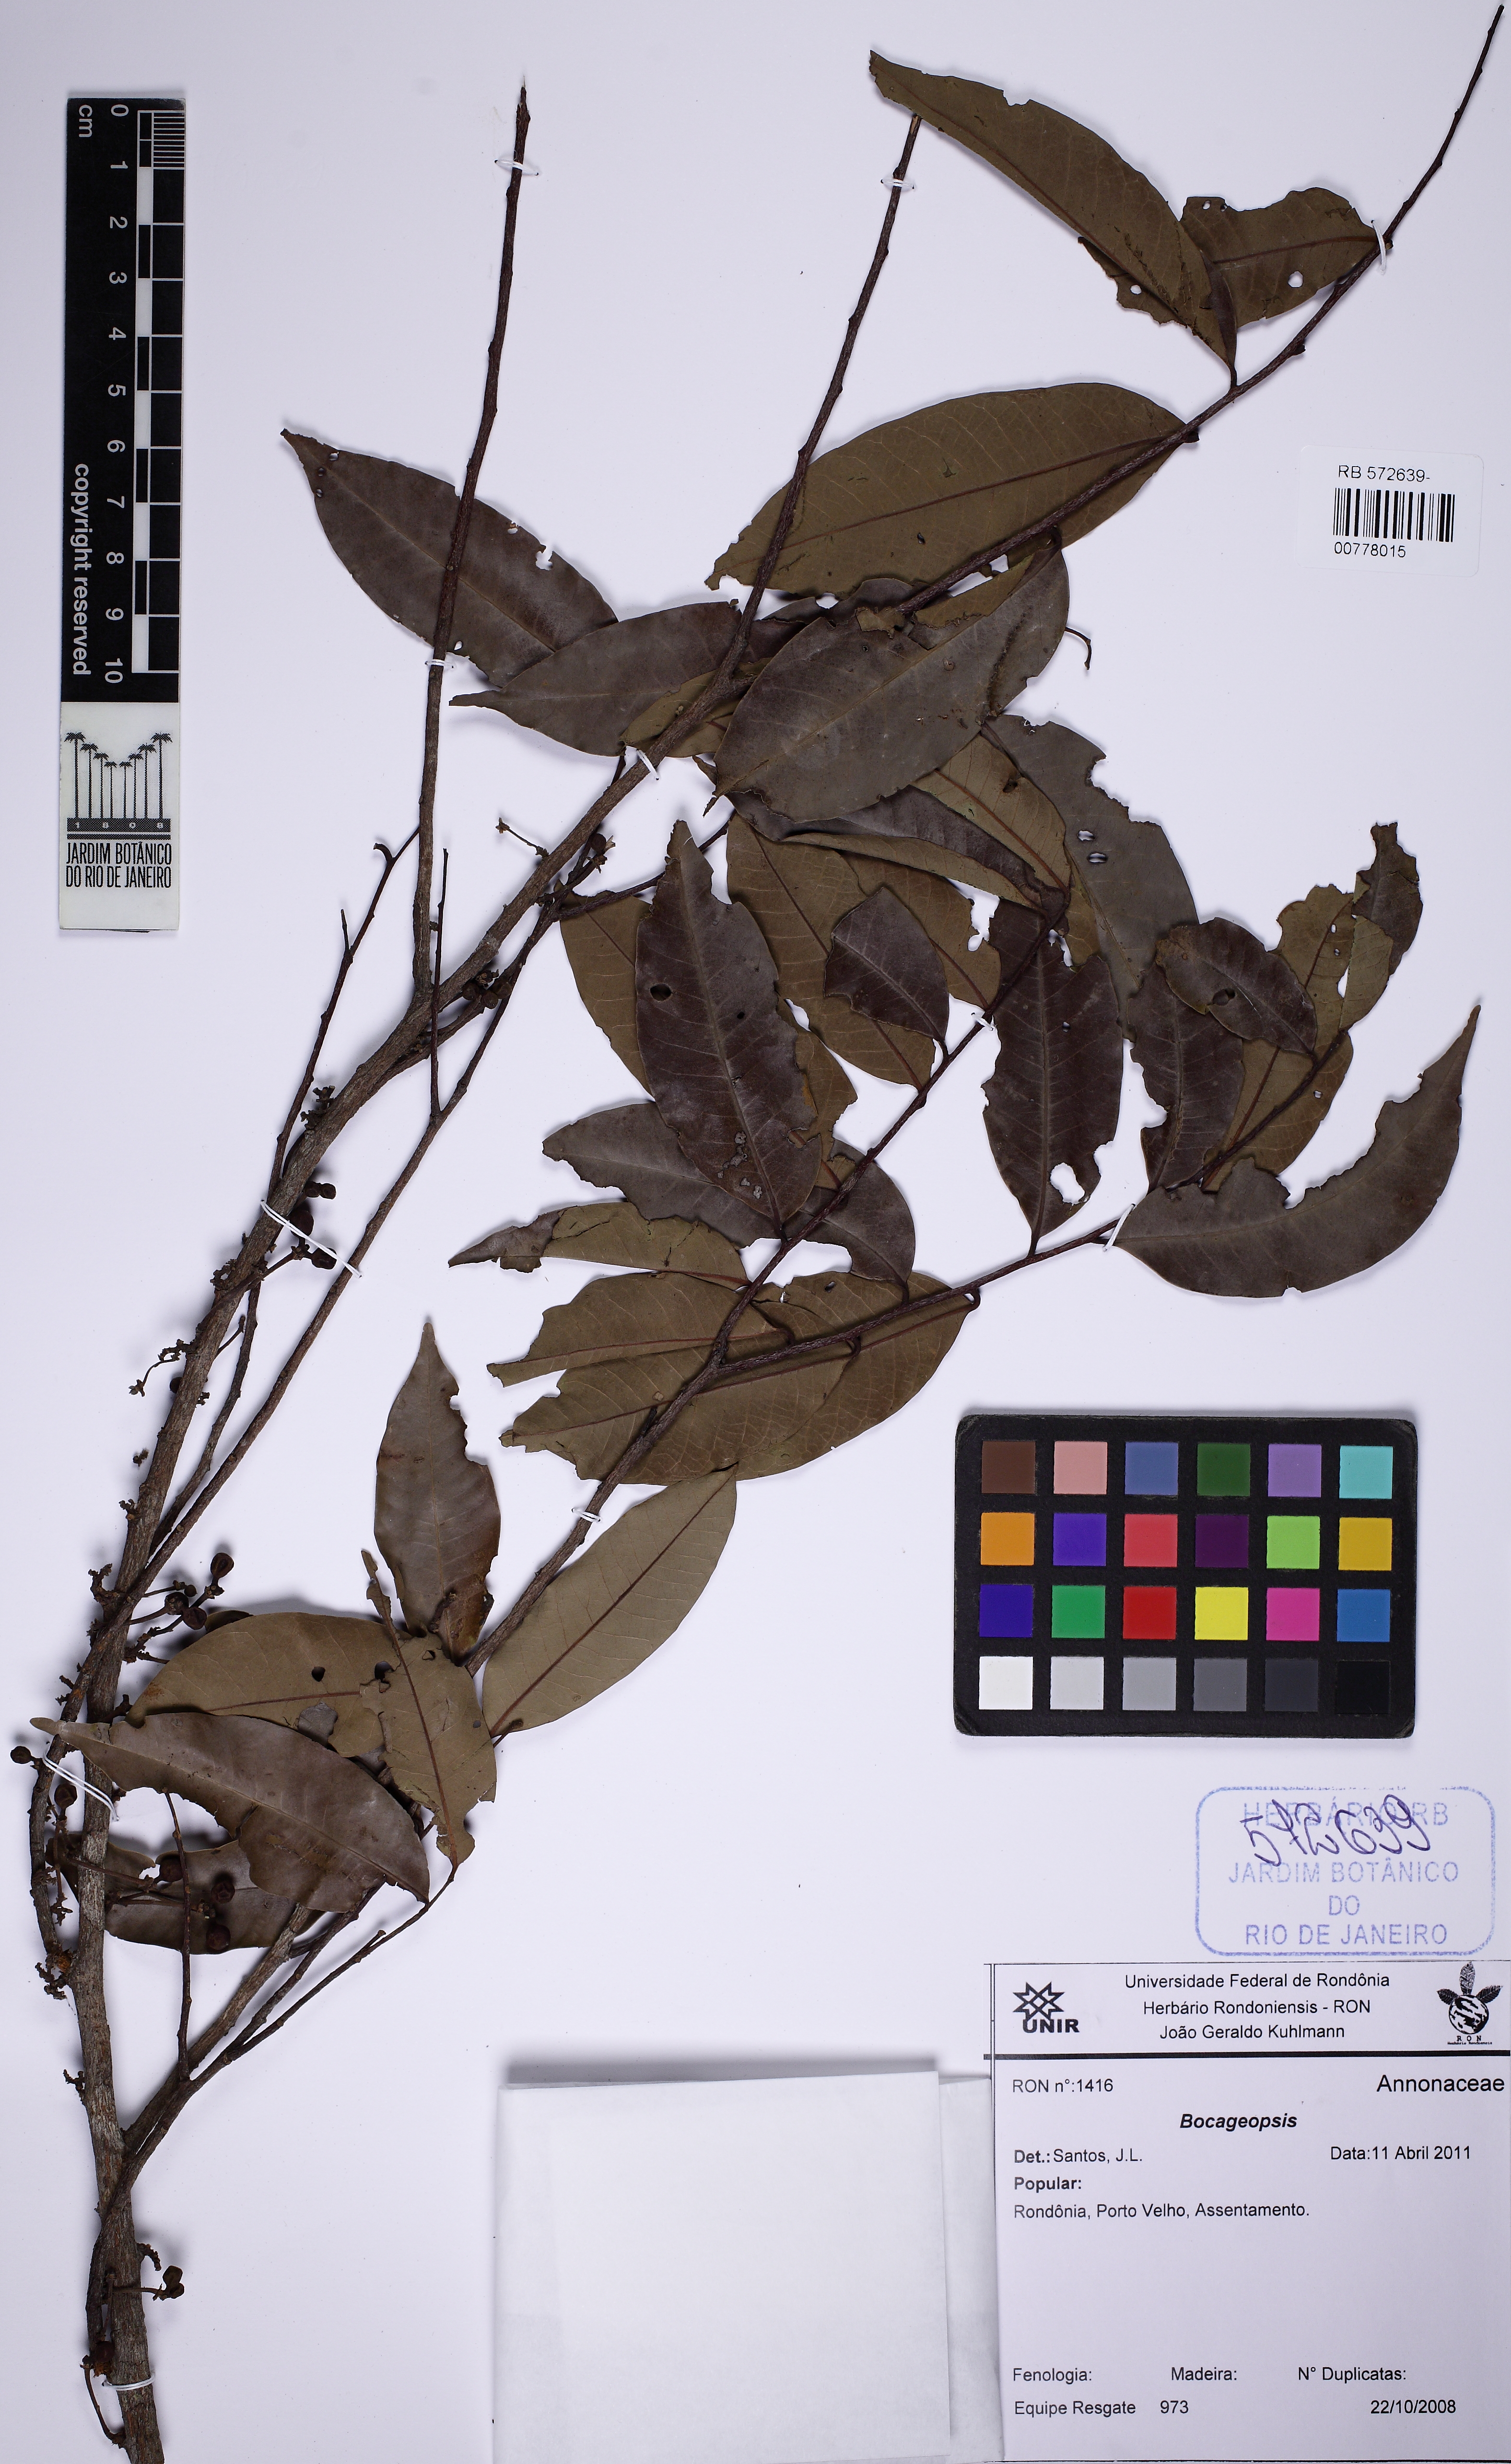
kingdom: Plantae
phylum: Tracheophyta
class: Magnoliopsida
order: Magnoliales
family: Annonaceae
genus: Bocageopsis
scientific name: Bocageopsis multiflora
